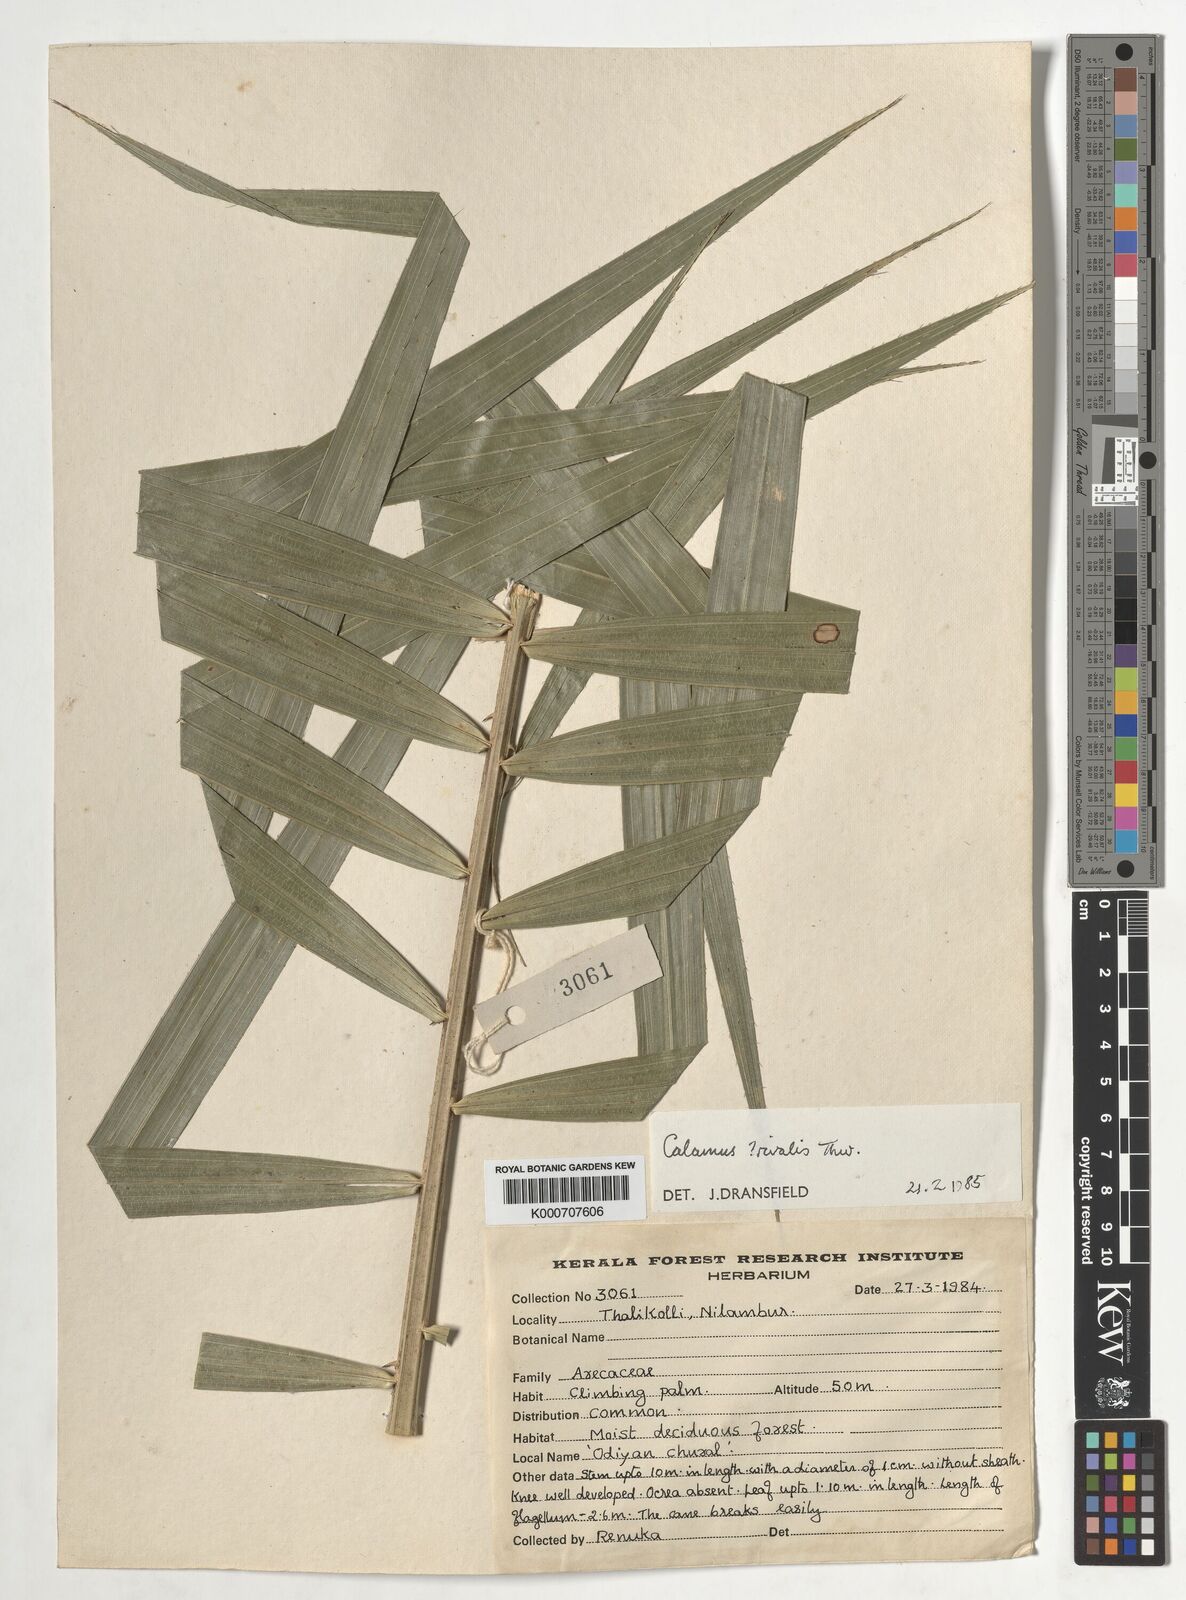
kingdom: Plantae
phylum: Tracheophyta
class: Liliopsida
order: Arecales
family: Arecaceae
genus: Calamus
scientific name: Calamus metzianus
